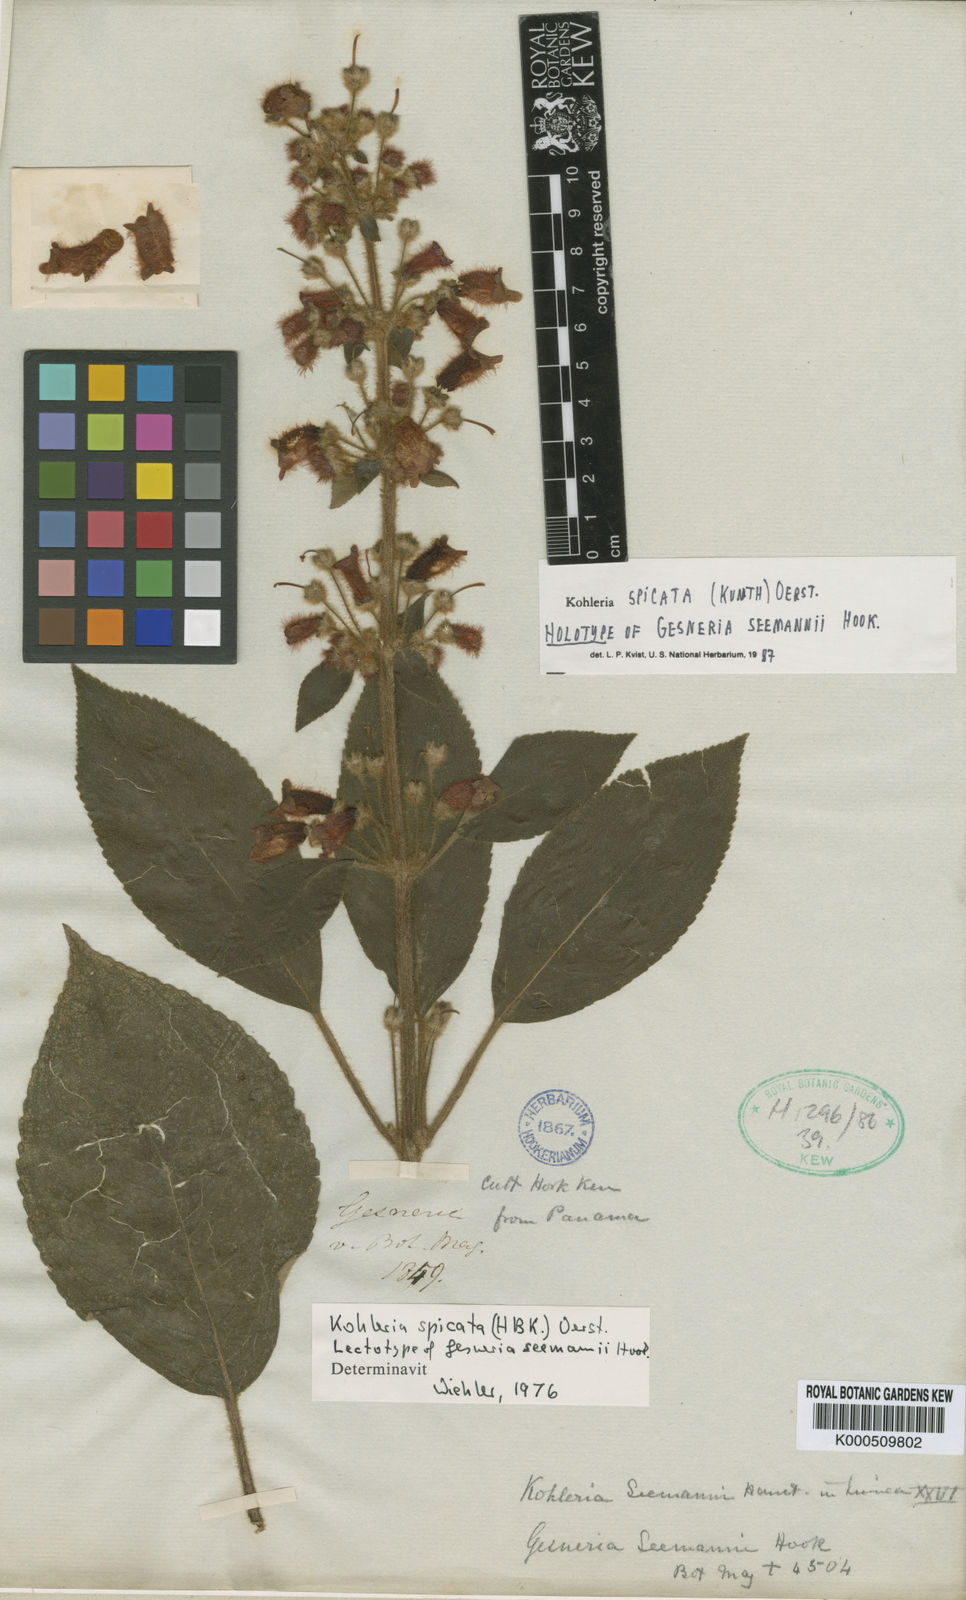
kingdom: Plantae
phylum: Tracheophyta
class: Magnoliopsida
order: Lamiales
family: Gesneriaceae
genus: Kohleria
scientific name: Kohleria spicata
